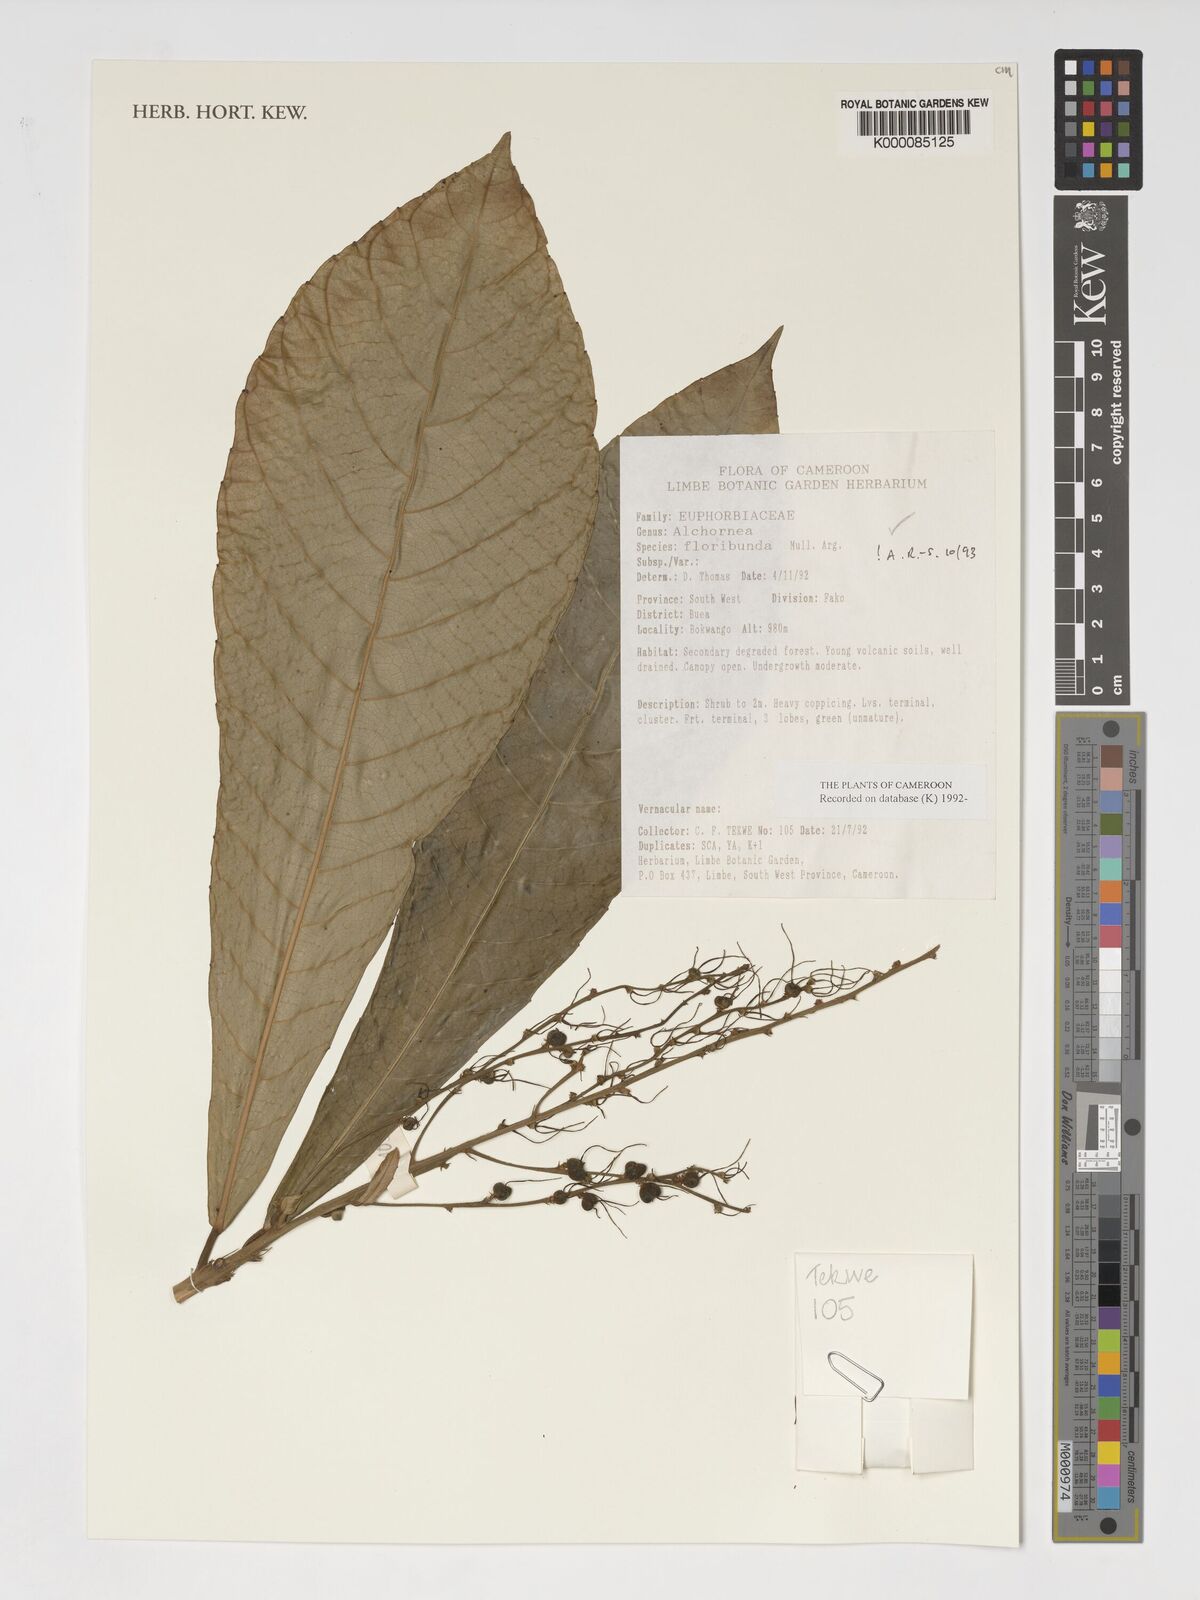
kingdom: Plantae
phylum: Tracheophyta
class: Magnoliopsida
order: Malpighiales
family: Euphorbiaceae
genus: Alchornea
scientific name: Alchornea
